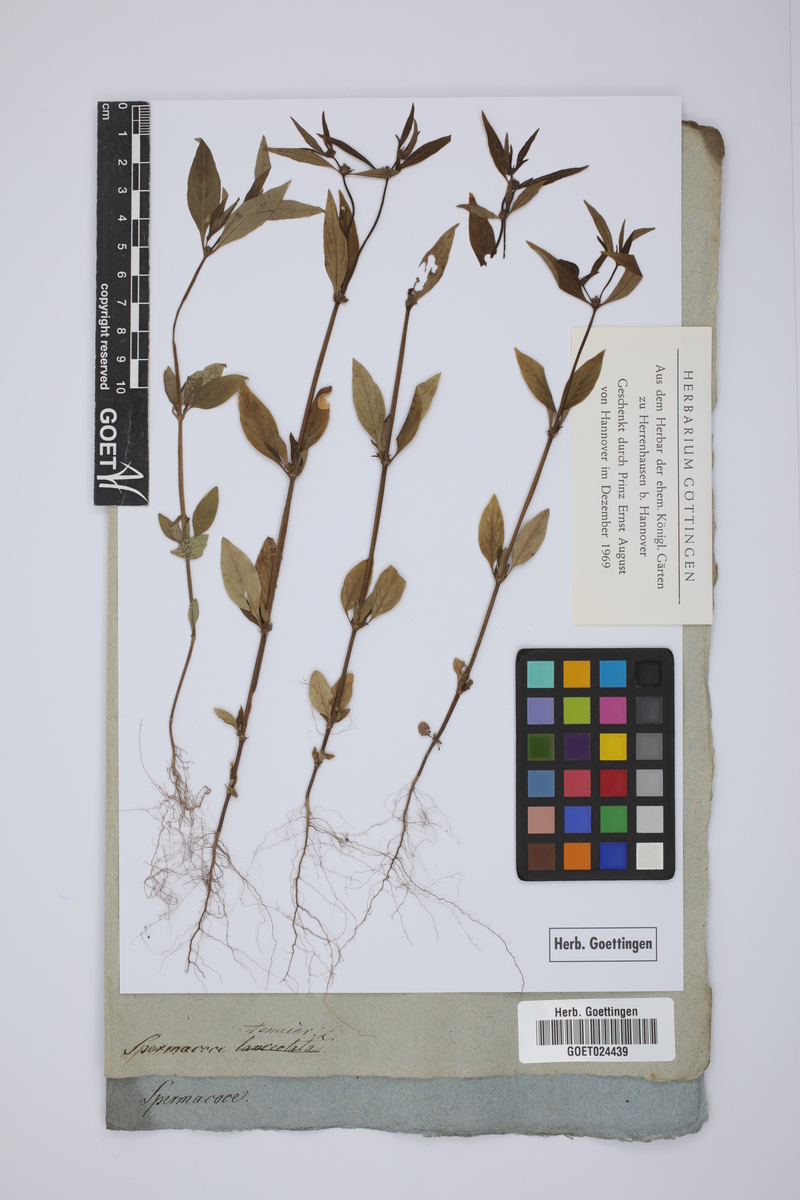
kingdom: Plantae
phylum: Tracheophyta
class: Magnoliopsida
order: Gentianales
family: Rubiaceae
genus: Spermacoce
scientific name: Spermacoce tenuior
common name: River false buttonweed
